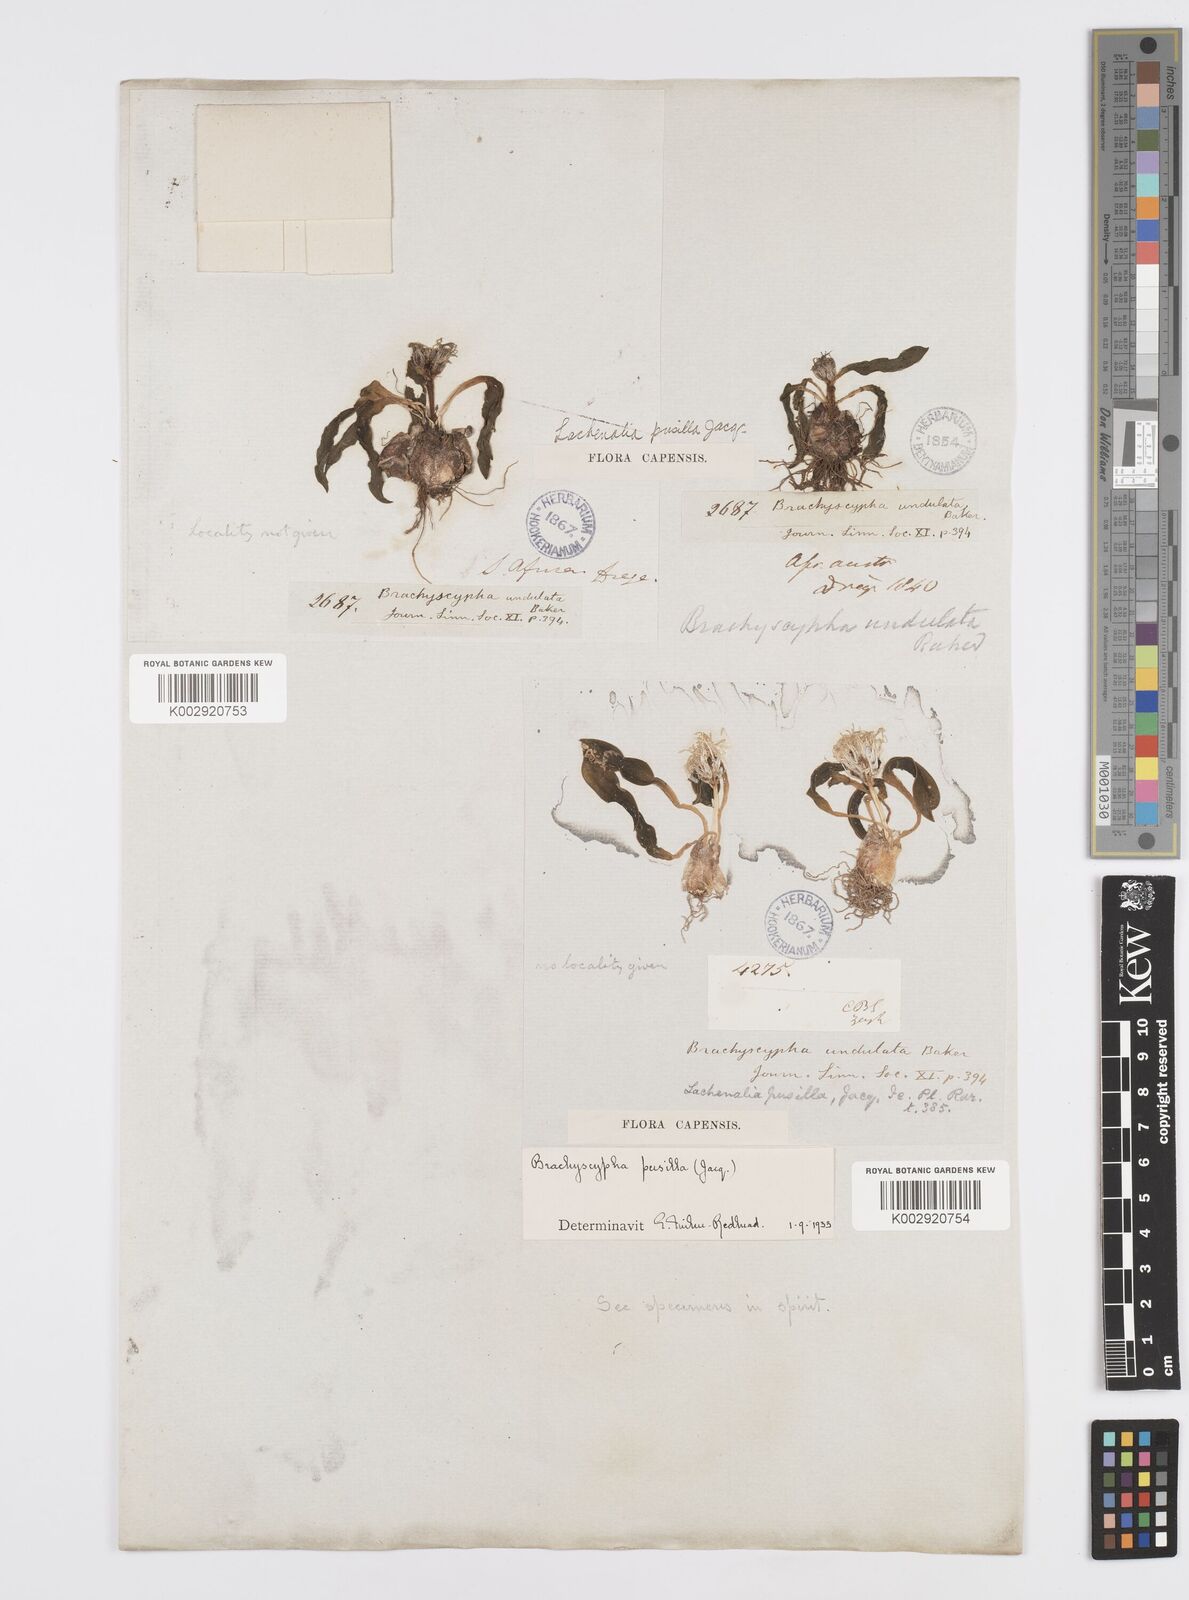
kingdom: Plantae
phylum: Tracheophyta
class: Liliopsida
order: Asparagales
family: Asparagaceae
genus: Lachenalia
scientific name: Lachenalia pusilla
